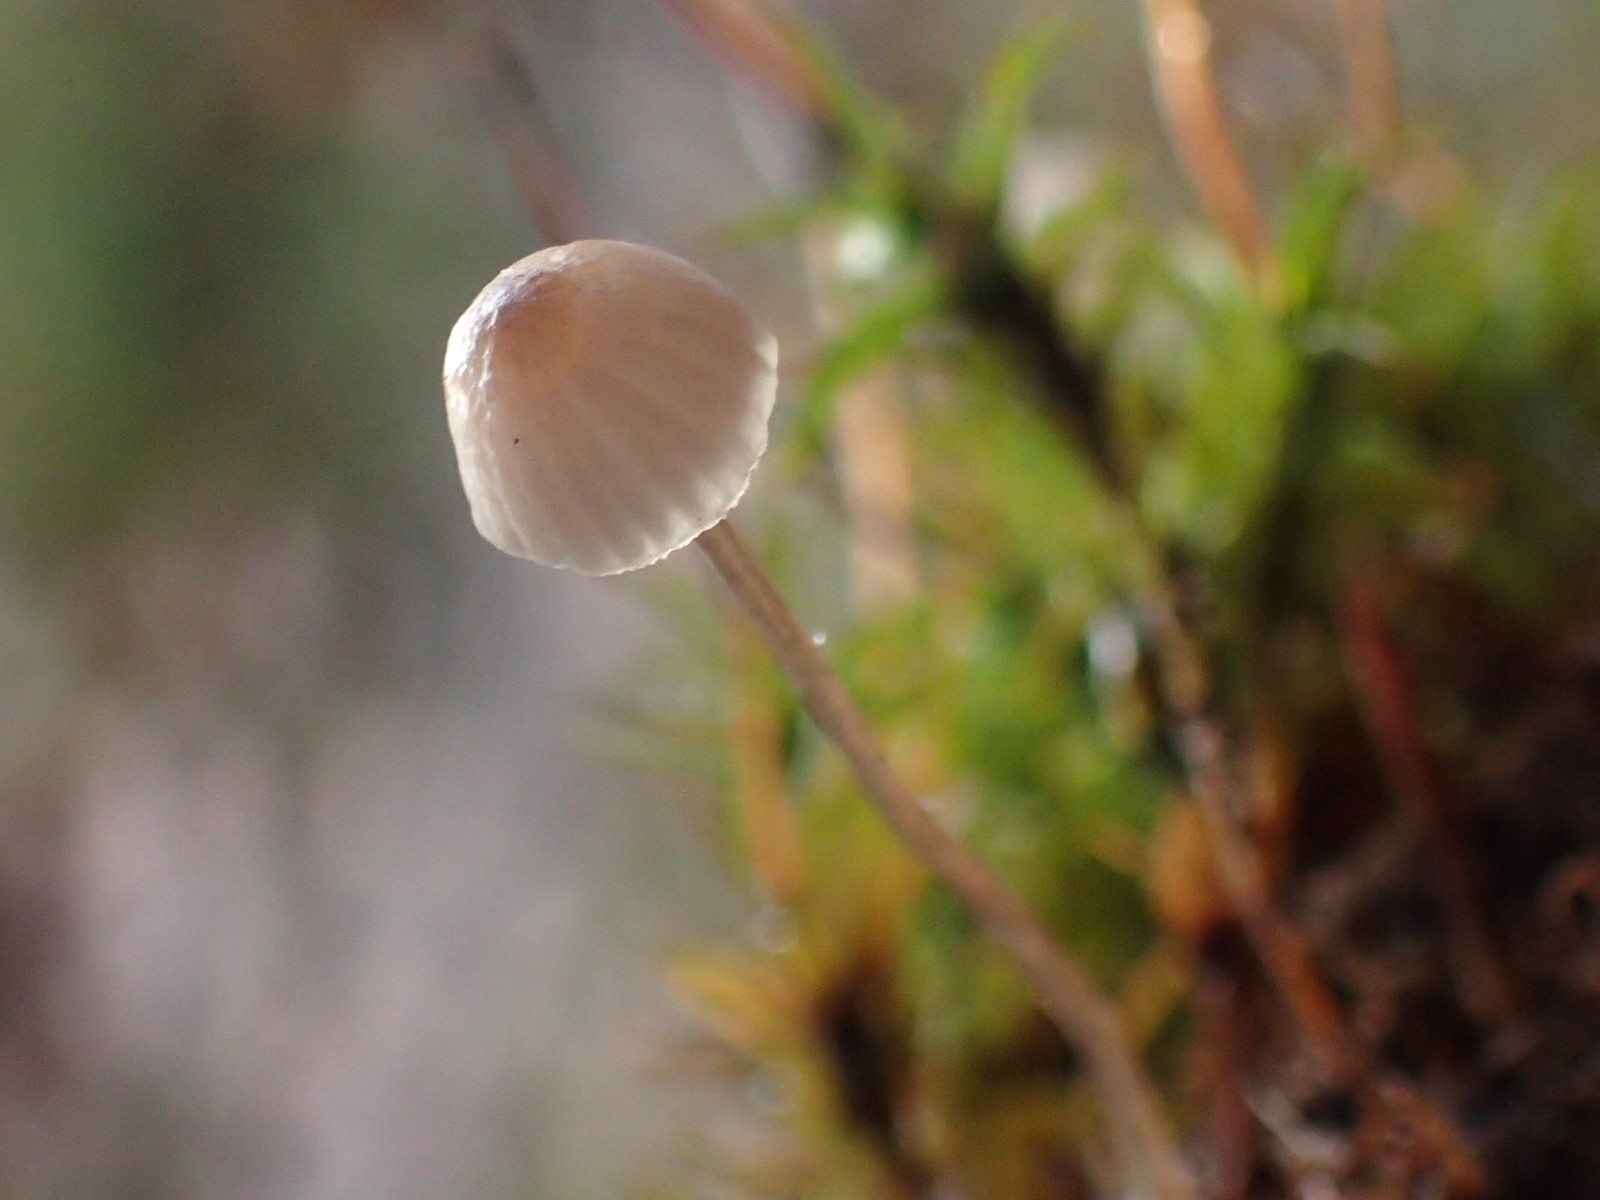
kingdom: Fungi
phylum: Basidiomycota
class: Agaricomycetes
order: Agaricales
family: Mycenaceae
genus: Mycena
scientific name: Mycena
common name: huesvamp
